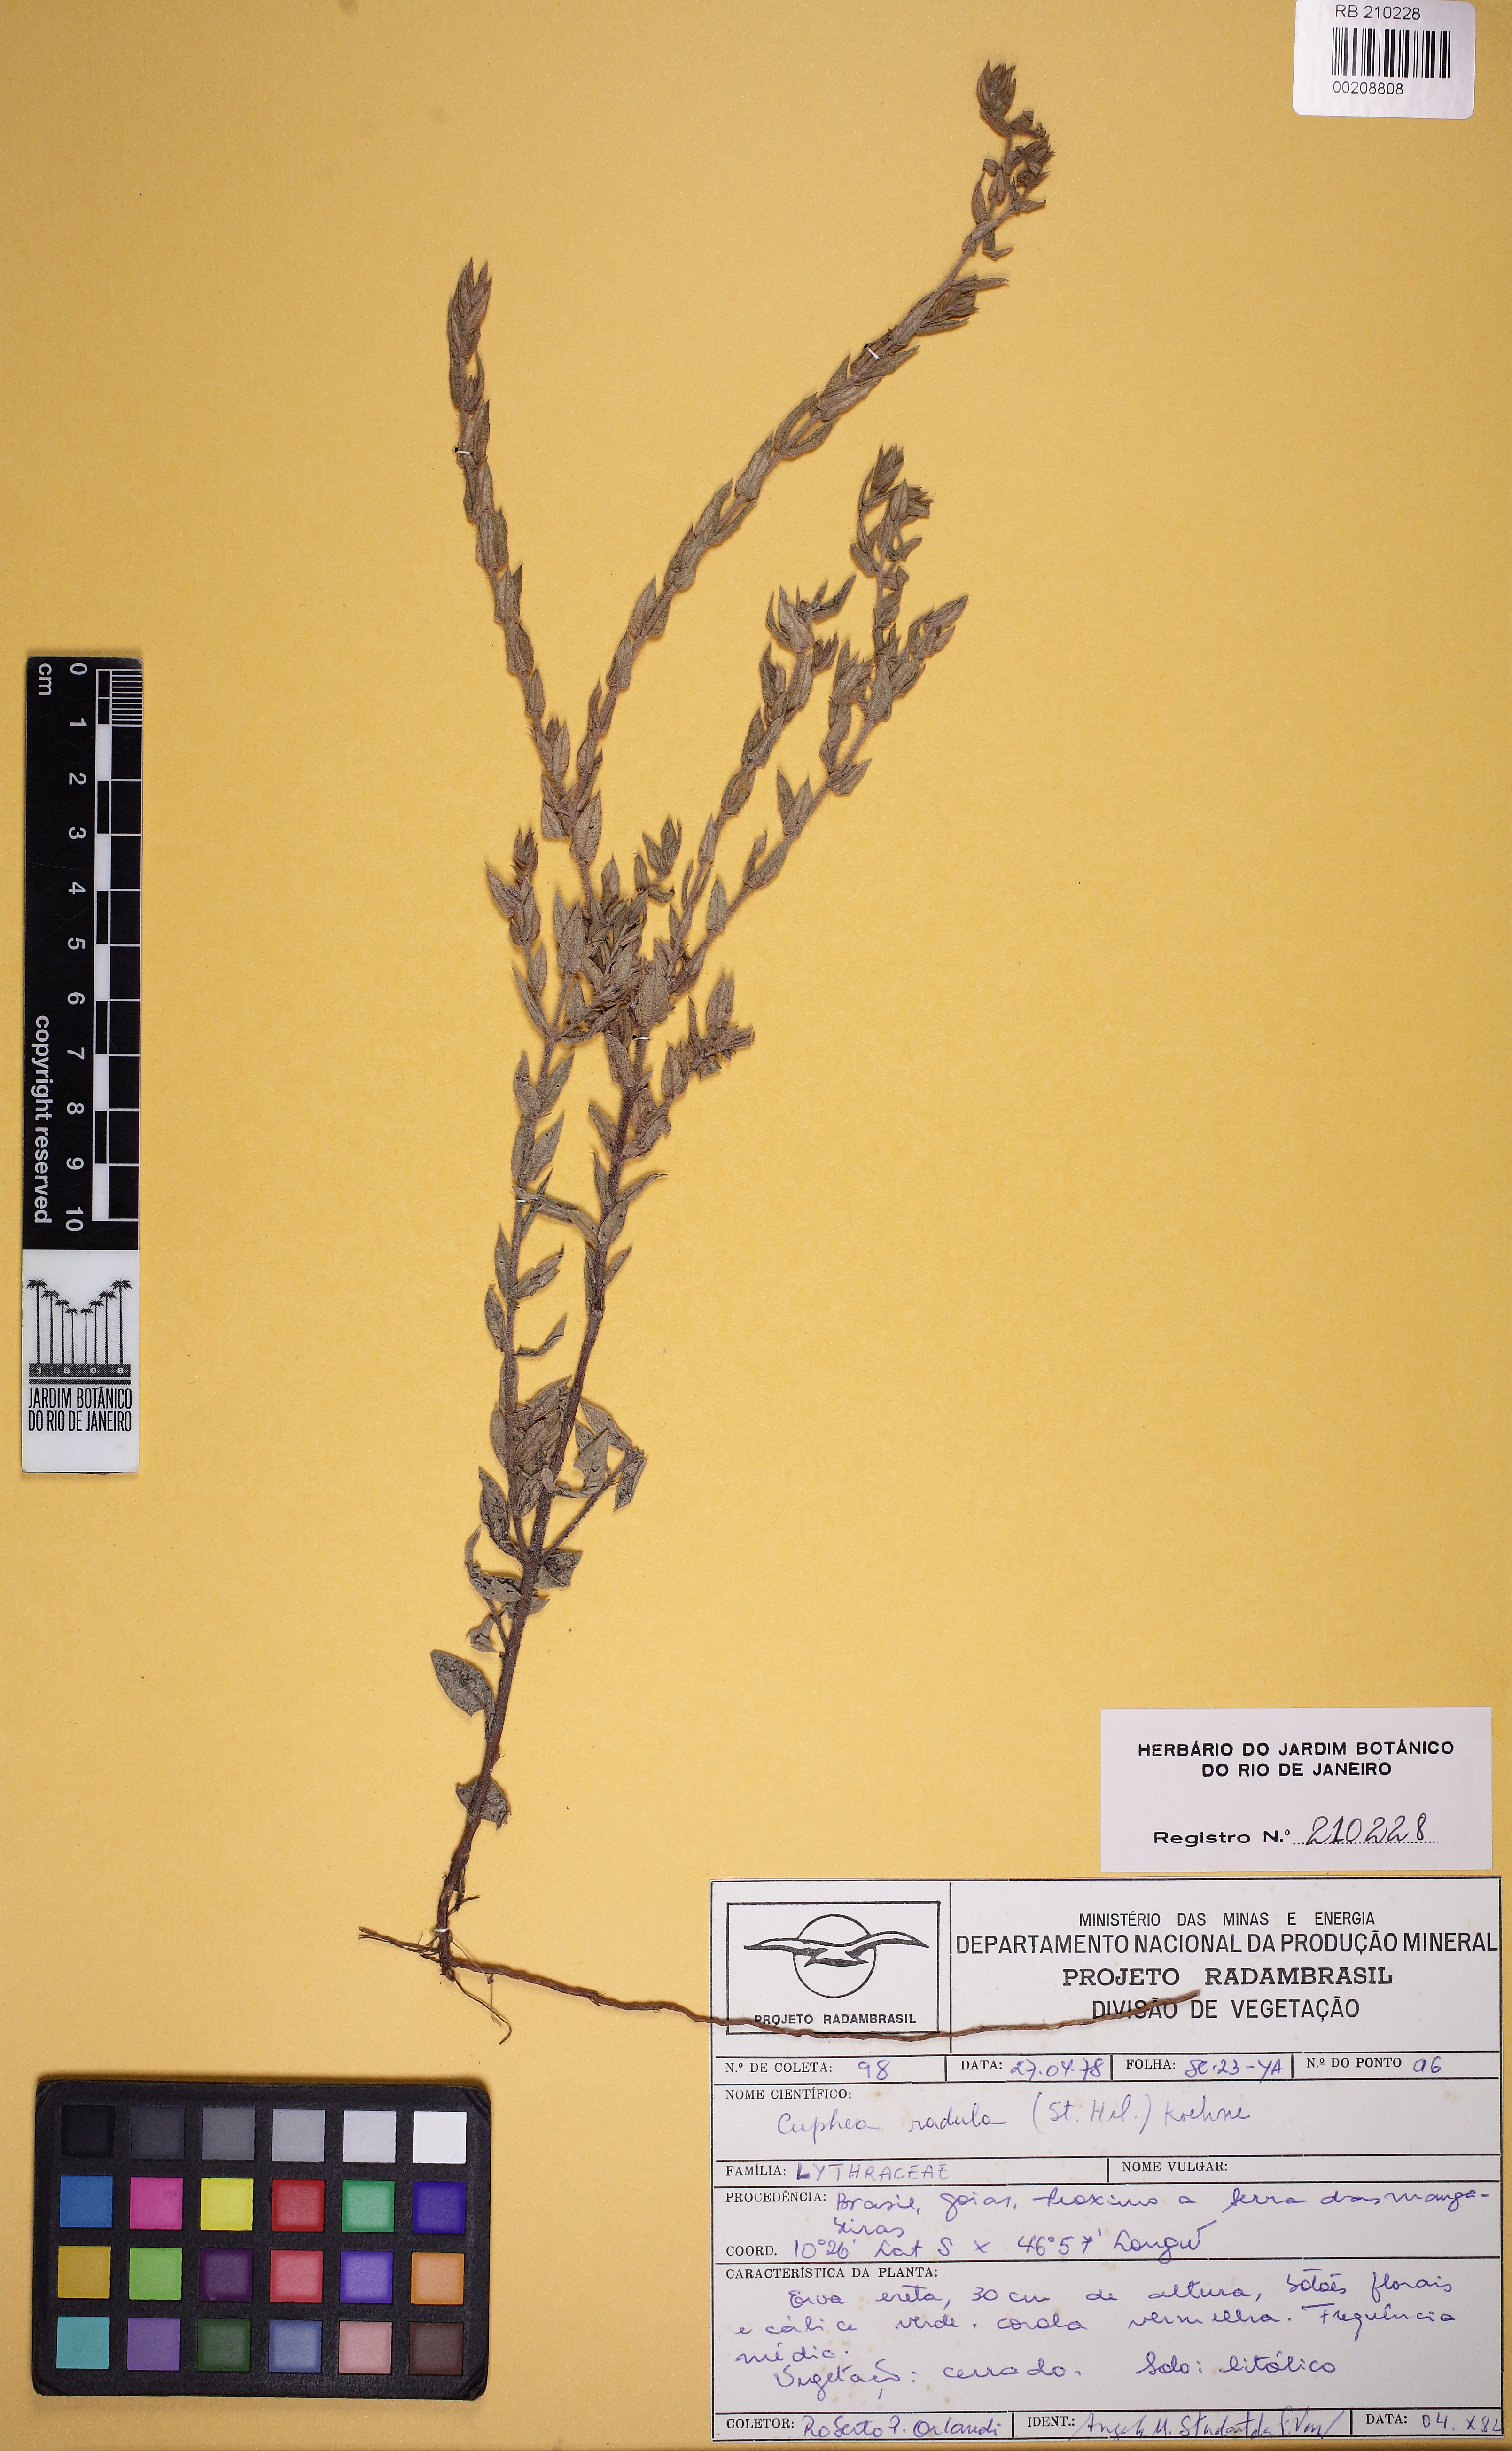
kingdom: Plantae
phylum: Tracheophyta
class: Magnoliopsida
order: Myrtales
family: Lythraceae
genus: Cuphea
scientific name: Cuphea antisyphilitica
